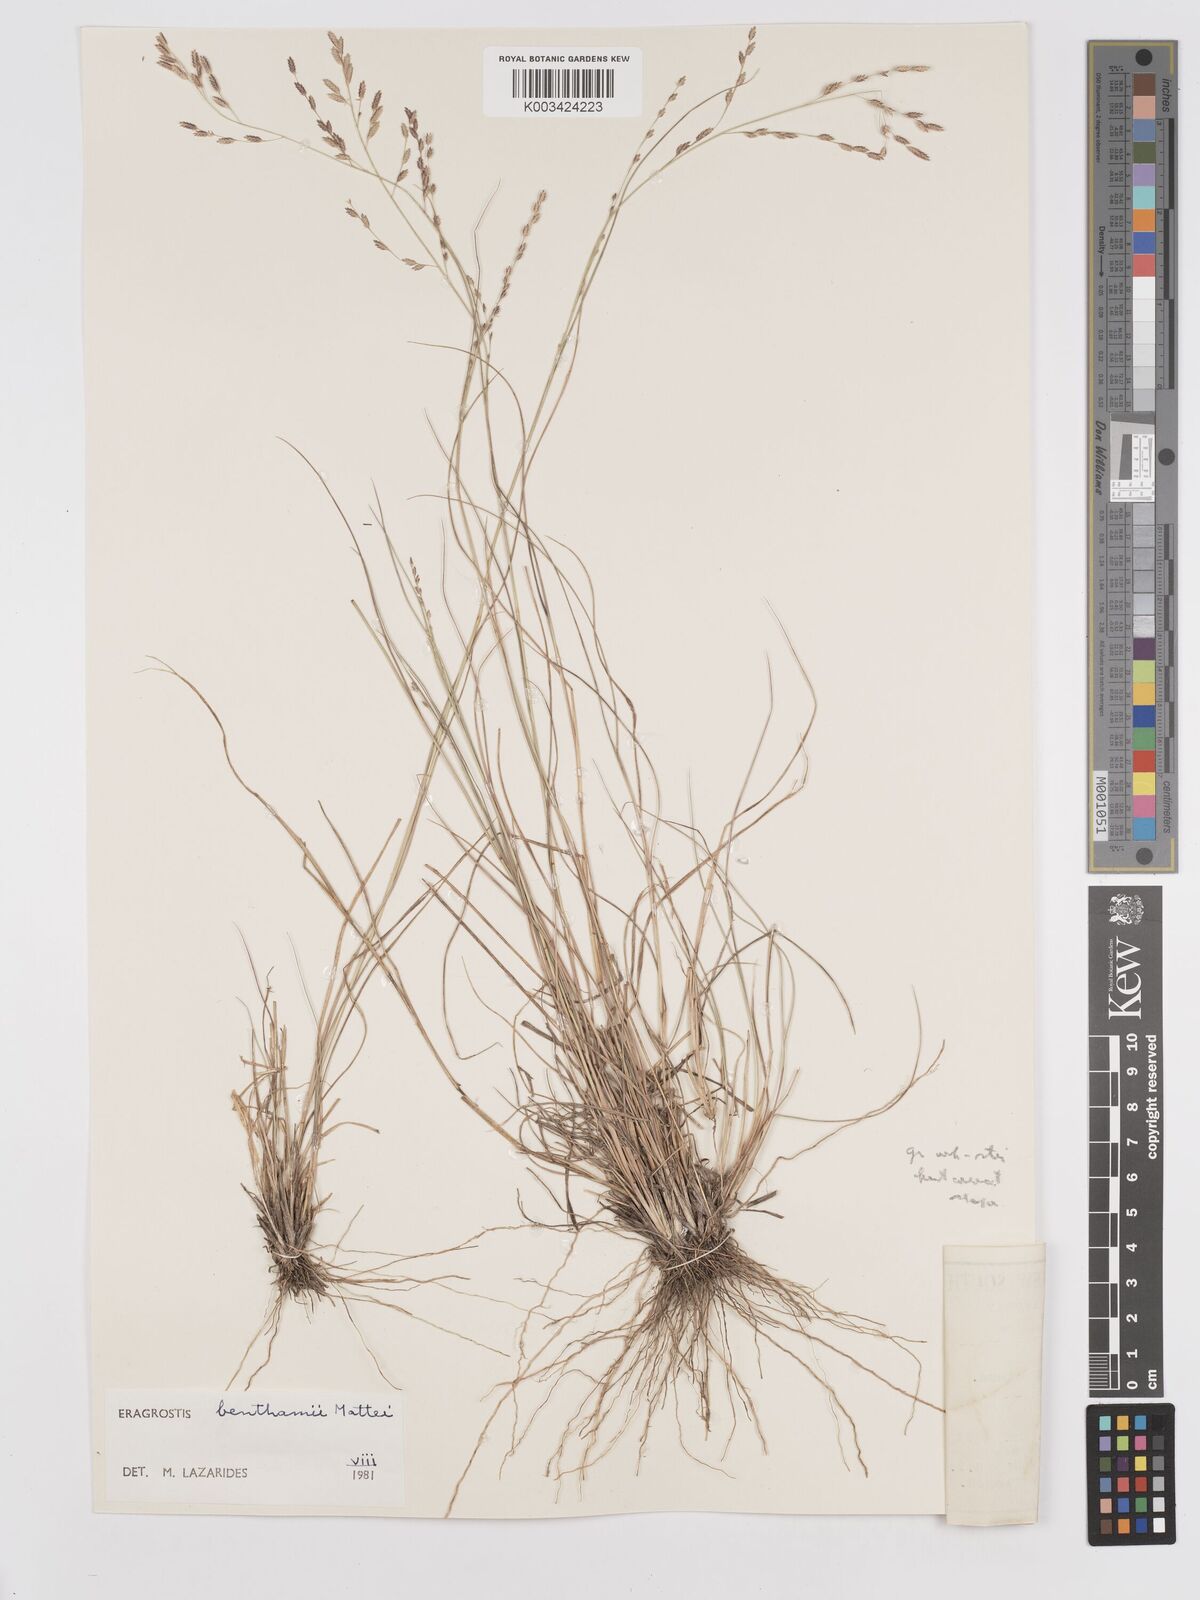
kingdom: Plantae
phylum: Tracheophyta
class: Liliopsida
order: Poales
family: Poaceae
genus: Eragrostis
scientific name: Eragrostis brownii
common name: Lovegrass
